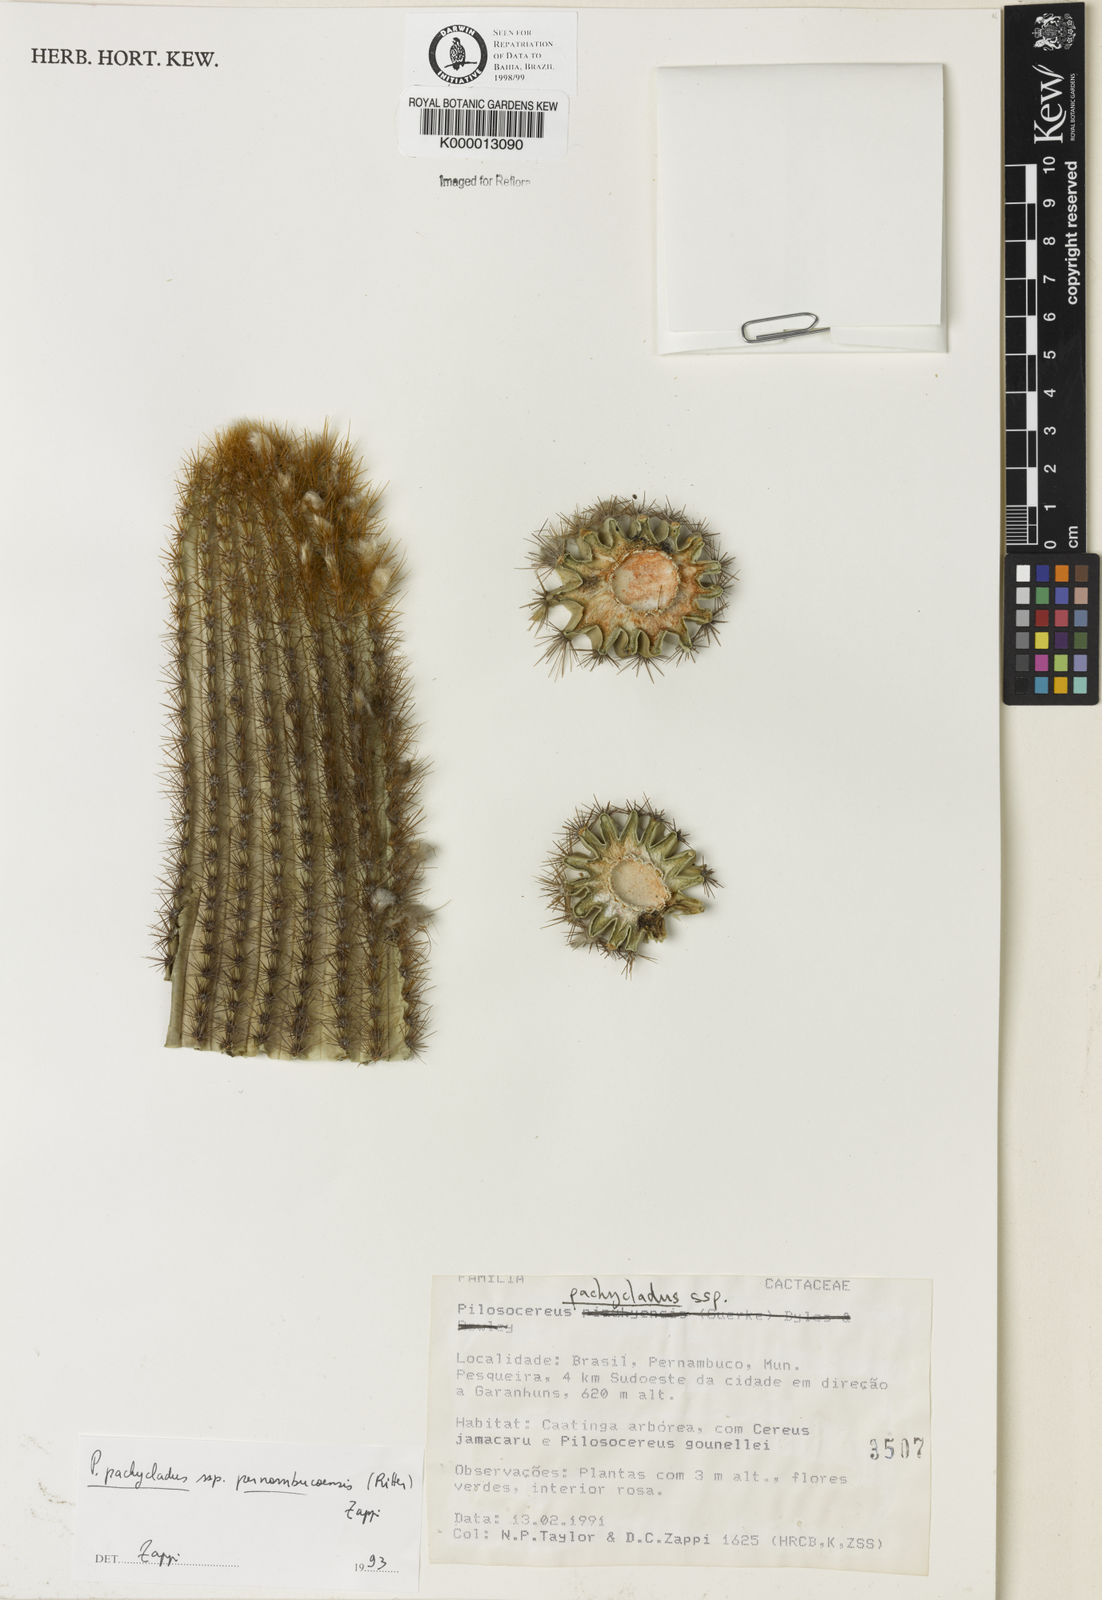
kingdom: Plantae
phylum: Tracheophyta
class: Magnoliopsida
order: Caryophyllales
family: Cactaceae
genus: Pilosocereus
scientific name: Pilosocereus pachycladus
